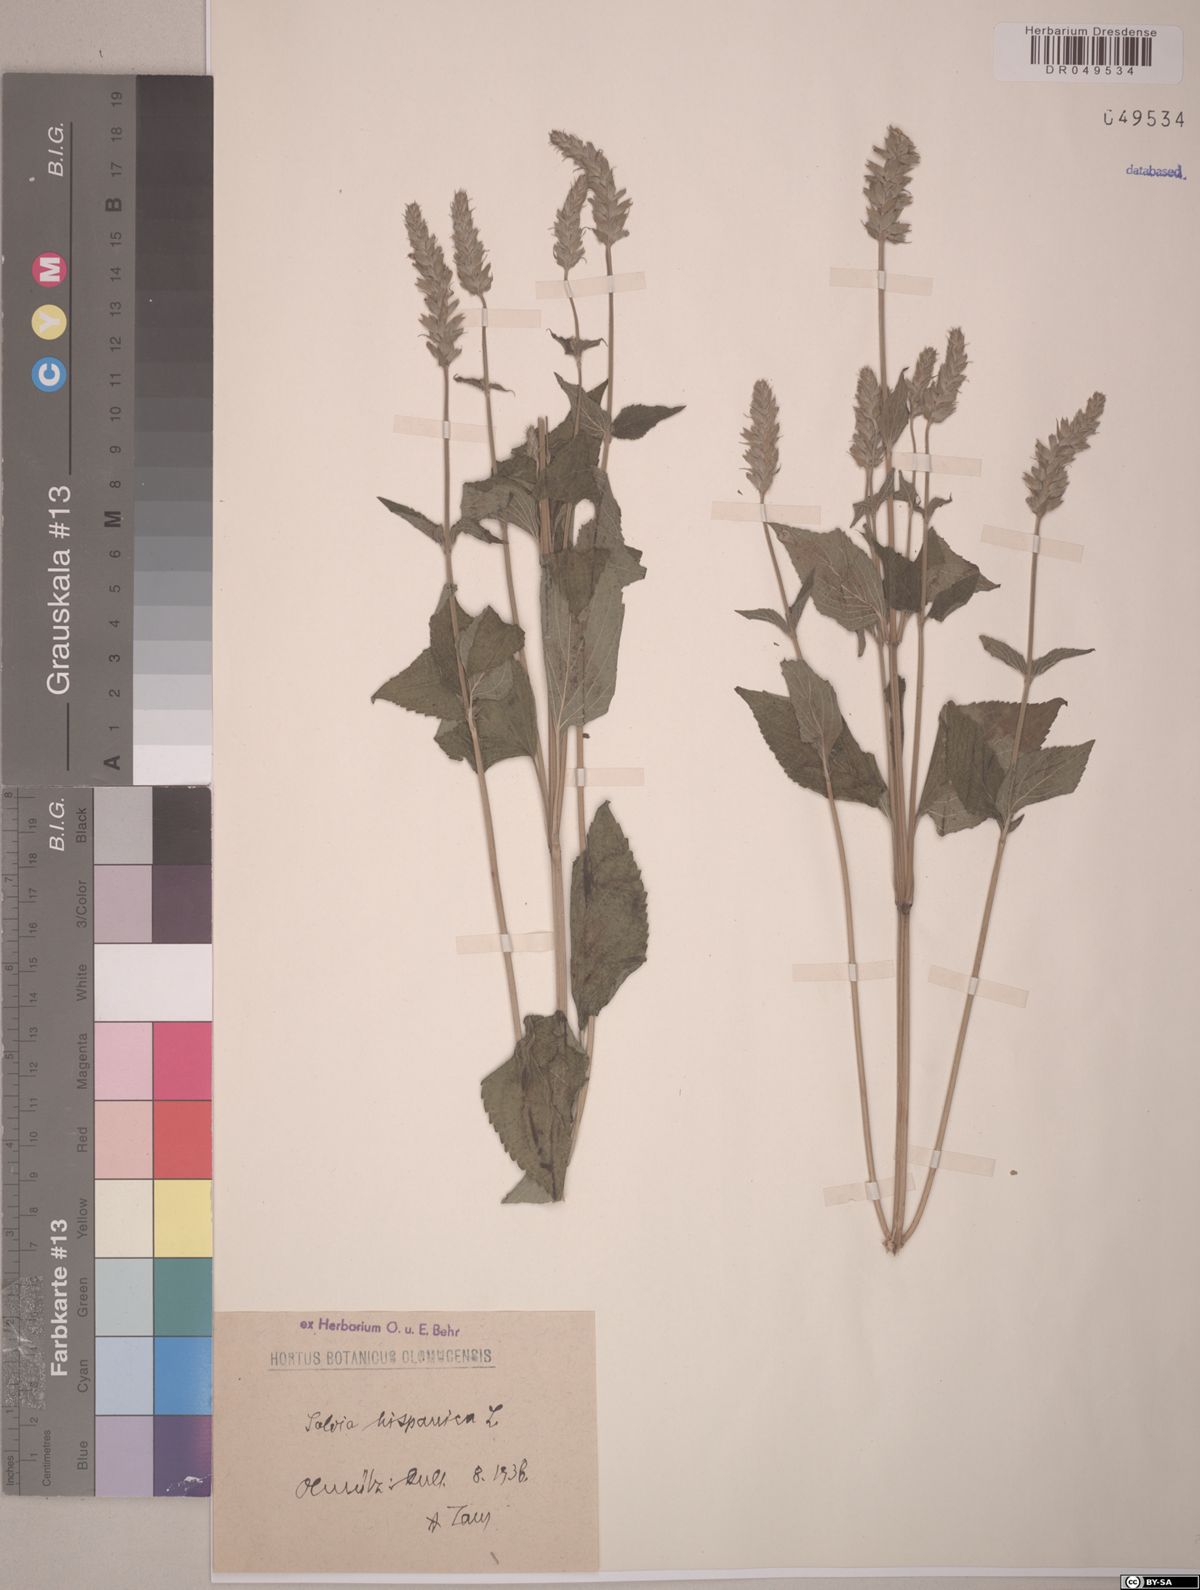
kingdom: Plantae
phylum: Tracheophyta
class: Magnoliopsida
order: Lamiales
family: Lamiaceae
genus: Salvia
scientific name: Salvia hispanica
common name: Chia
